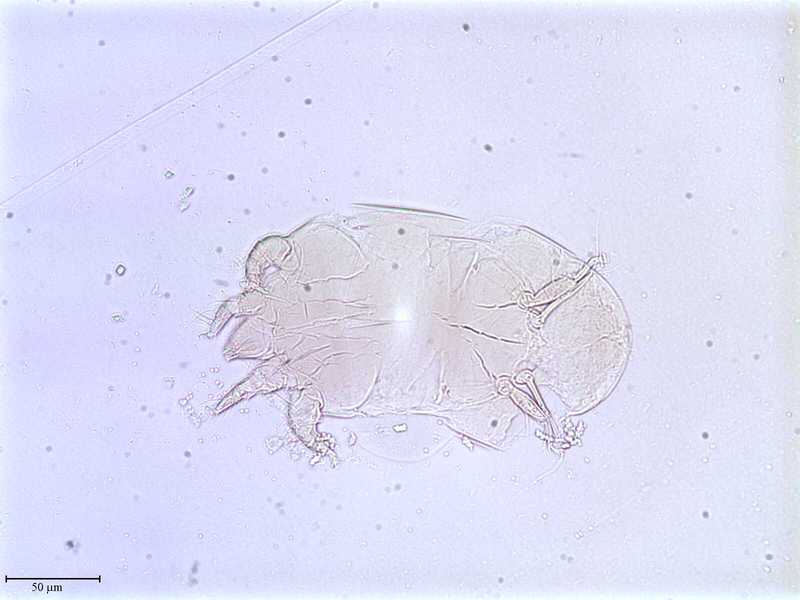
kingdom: Animalia
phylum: Arthropoda
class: Arachnida
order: Trombidiformes
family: Tarsonemidae
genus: Tarsonemus
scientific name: Tarsonemus minimax
